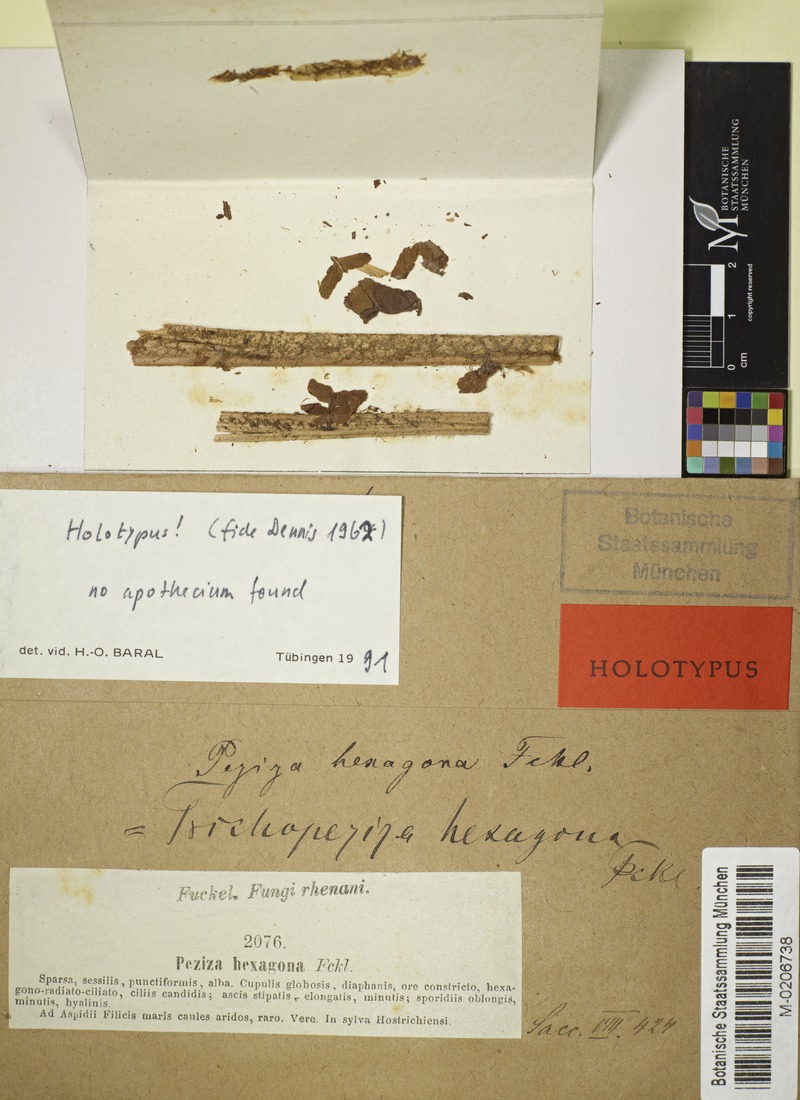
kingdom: Fungi
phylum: Ascomycota
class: Leotiomycetes
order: Helotiales
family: Hyaloscyphaceae
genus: Hyalopeziza
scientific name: Hyalopeziza hexagona
